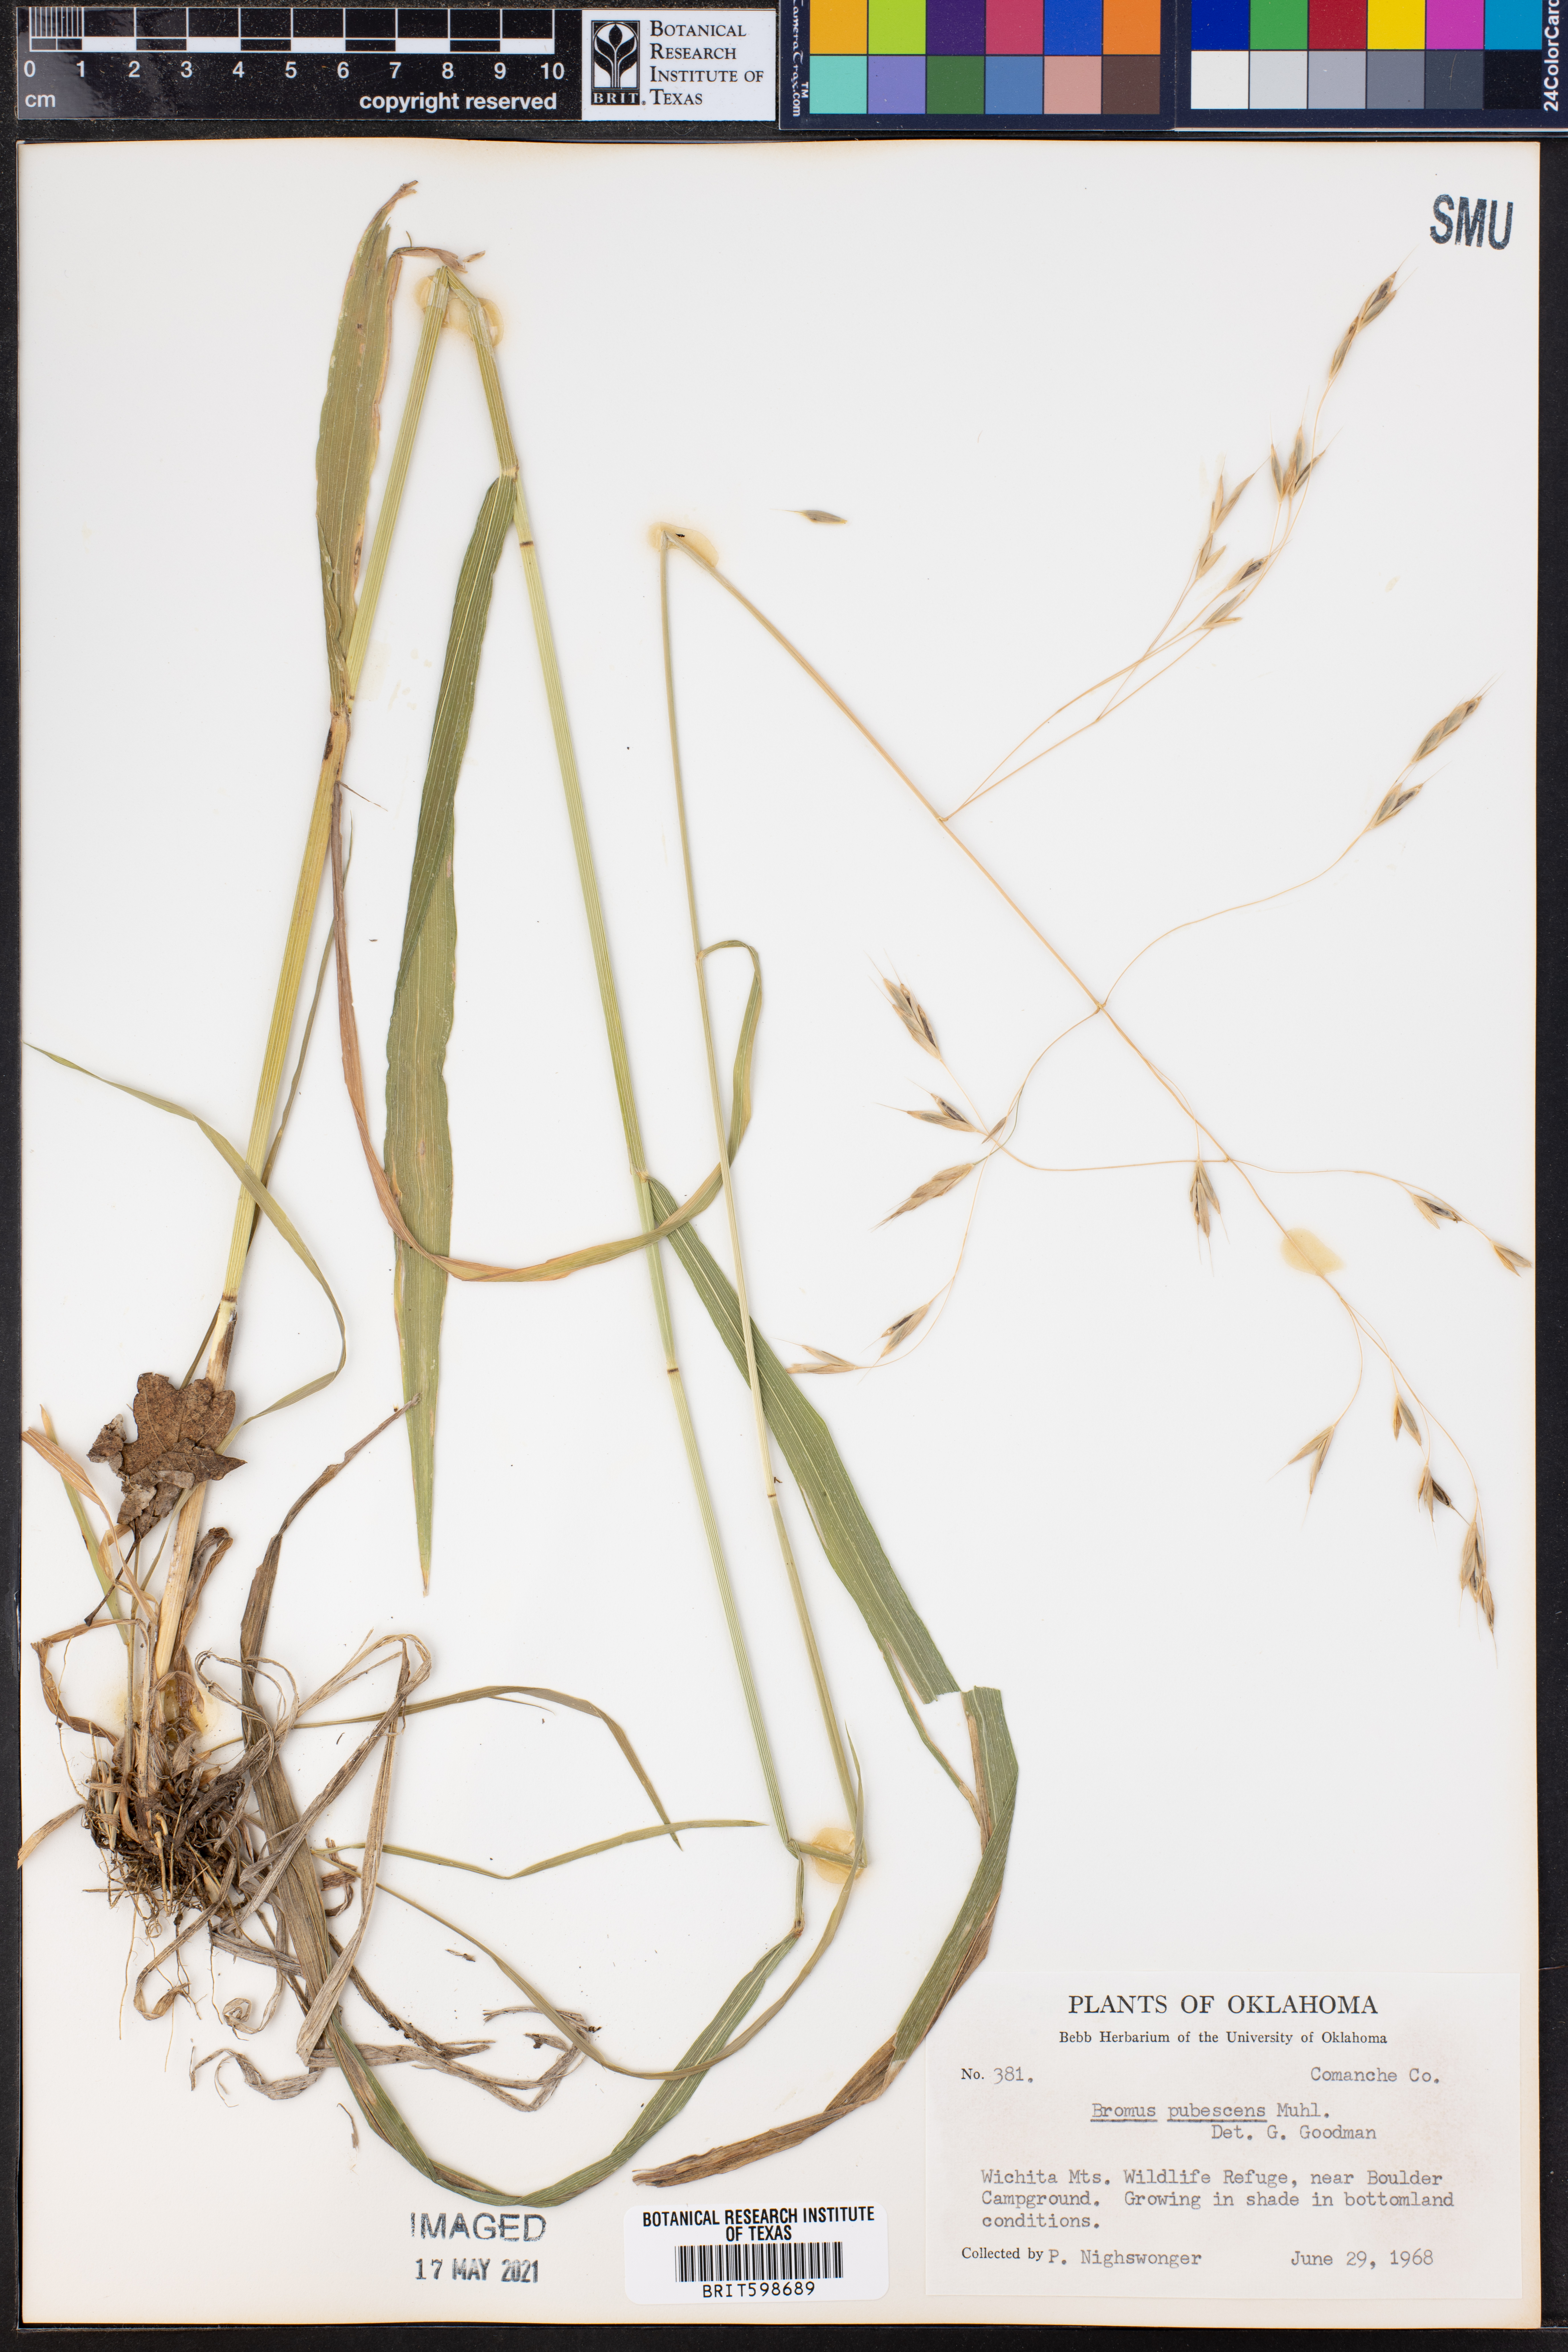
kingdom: Plantae
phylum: Tracheophyta
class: Liliopsida
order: Poales
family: Poaceae
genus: Bromus
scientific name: Bromus pubescens
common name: Hairy wood brome grass
